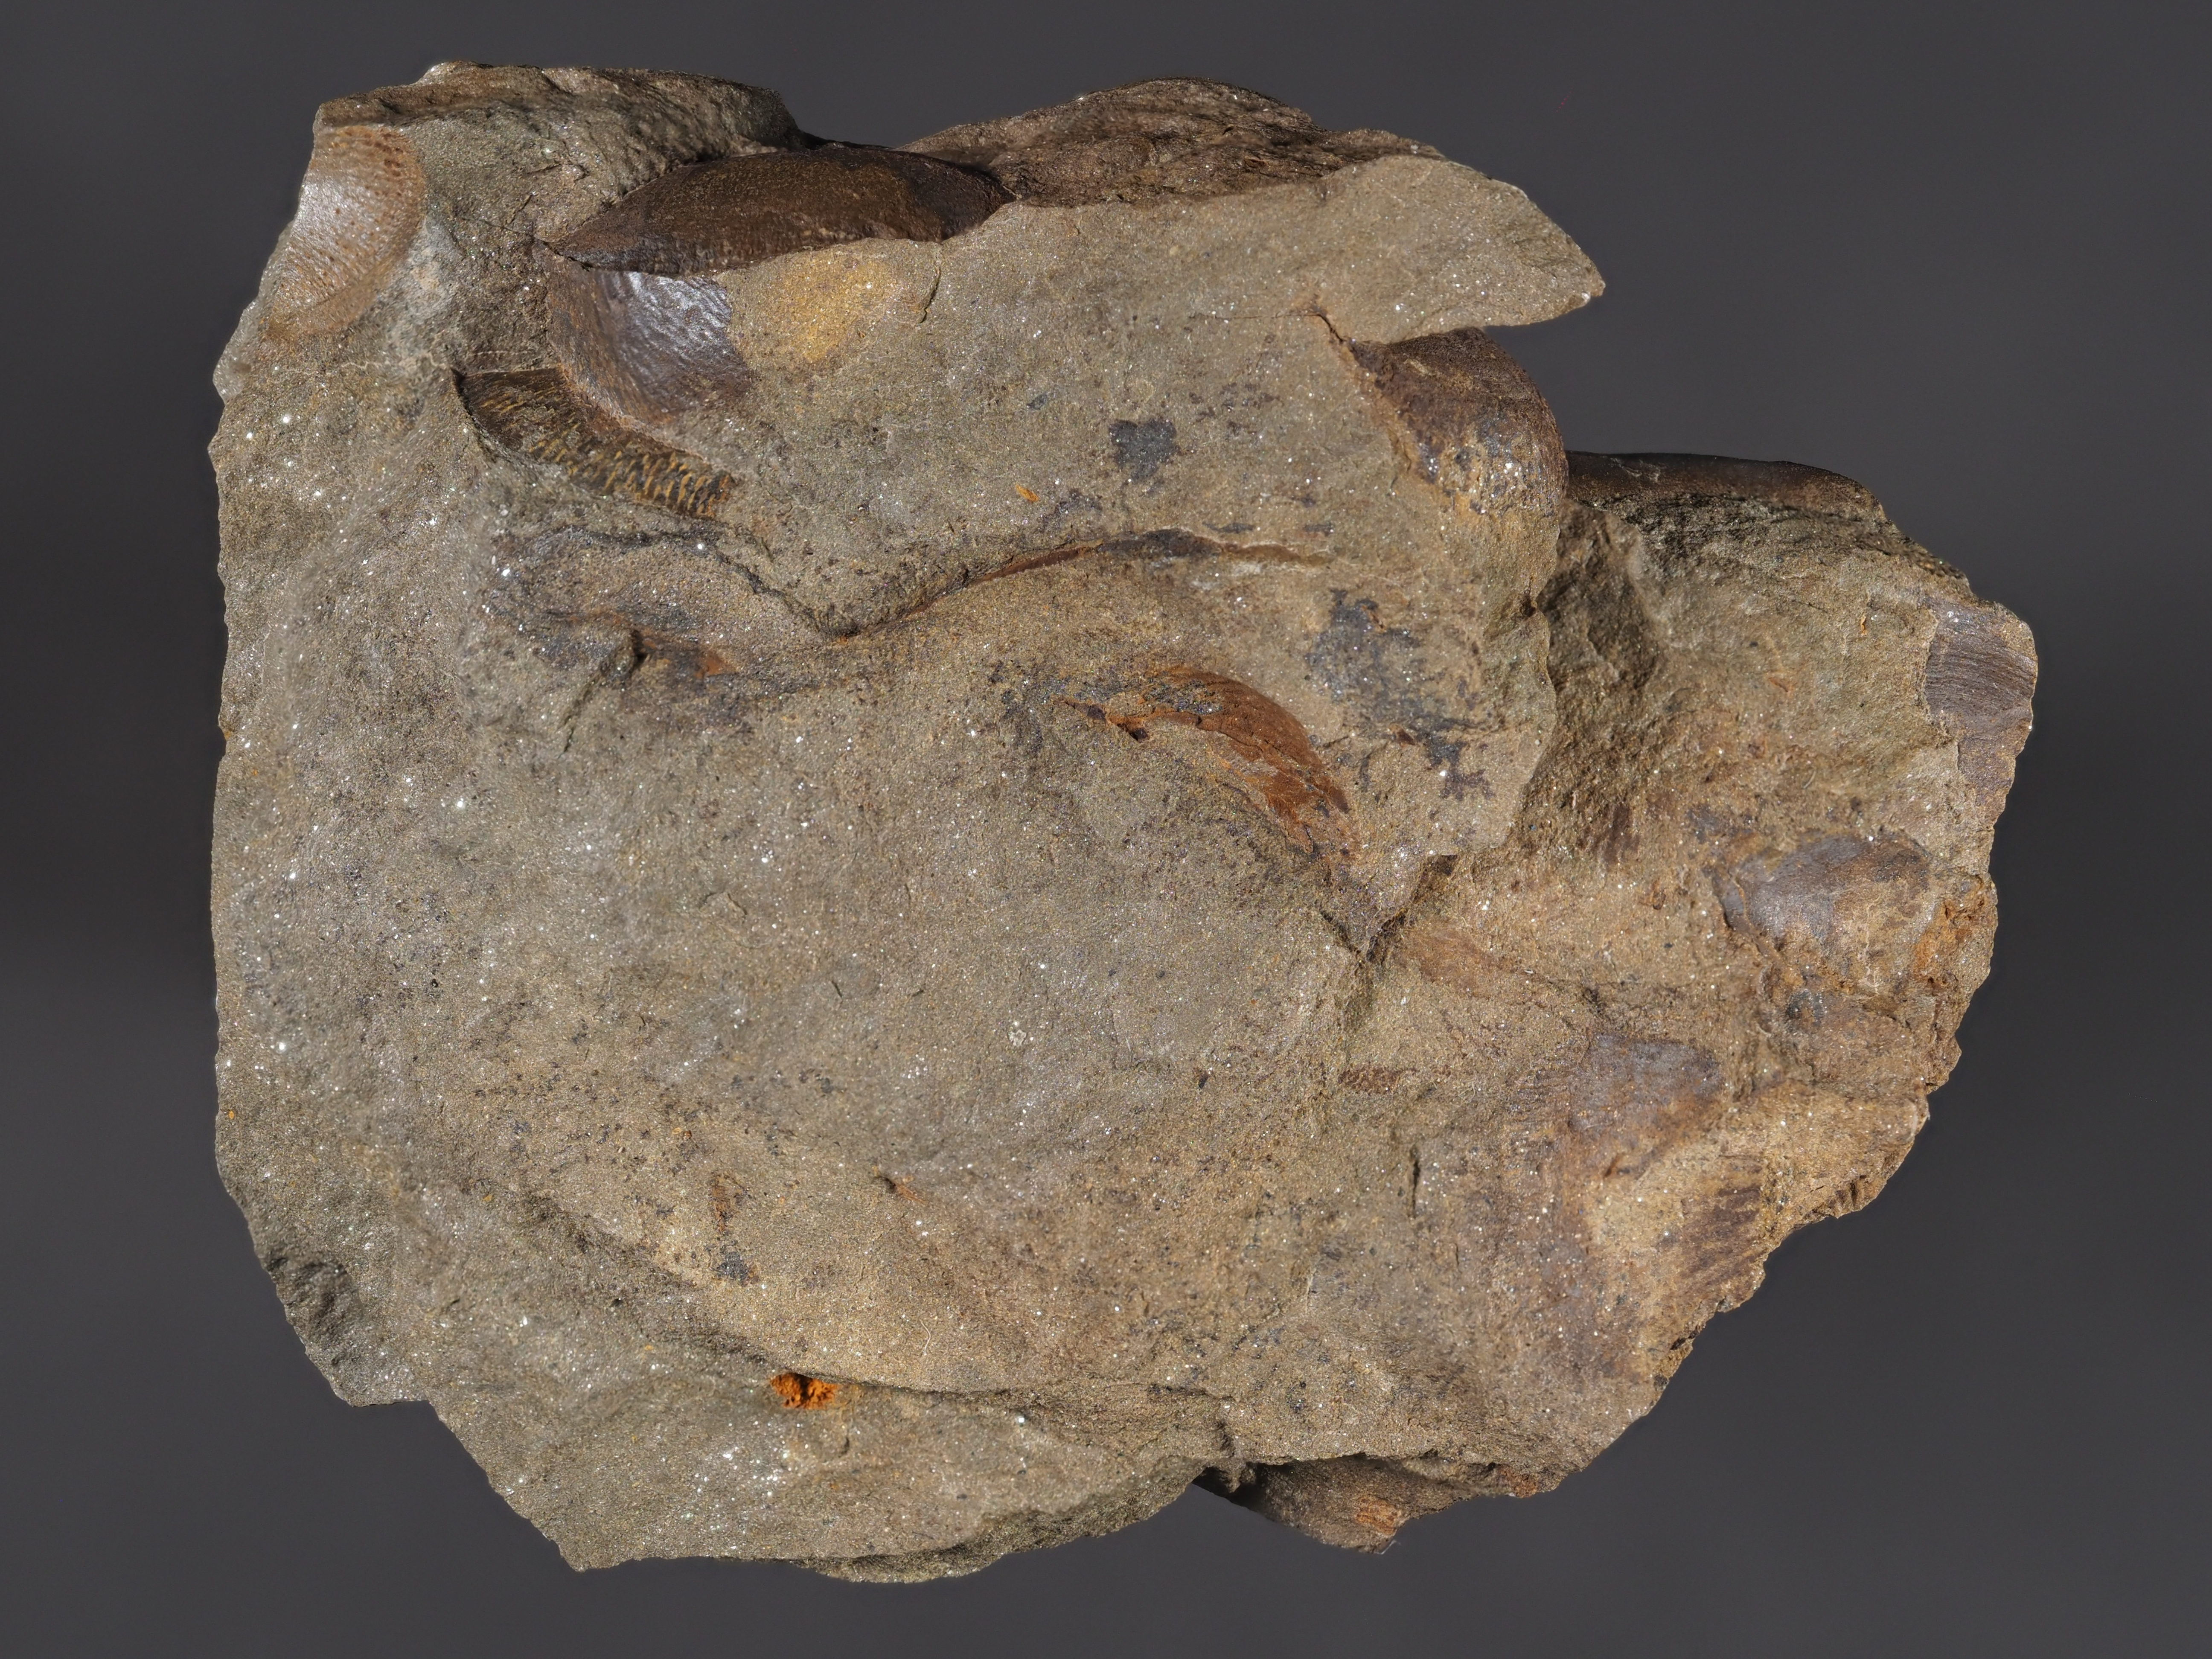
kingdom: Animalia
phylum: Mollusca
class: Bivalvia
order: Nuculanida
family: Malletiidae
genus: Palaeoneilo
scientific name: Palaeoneilo
